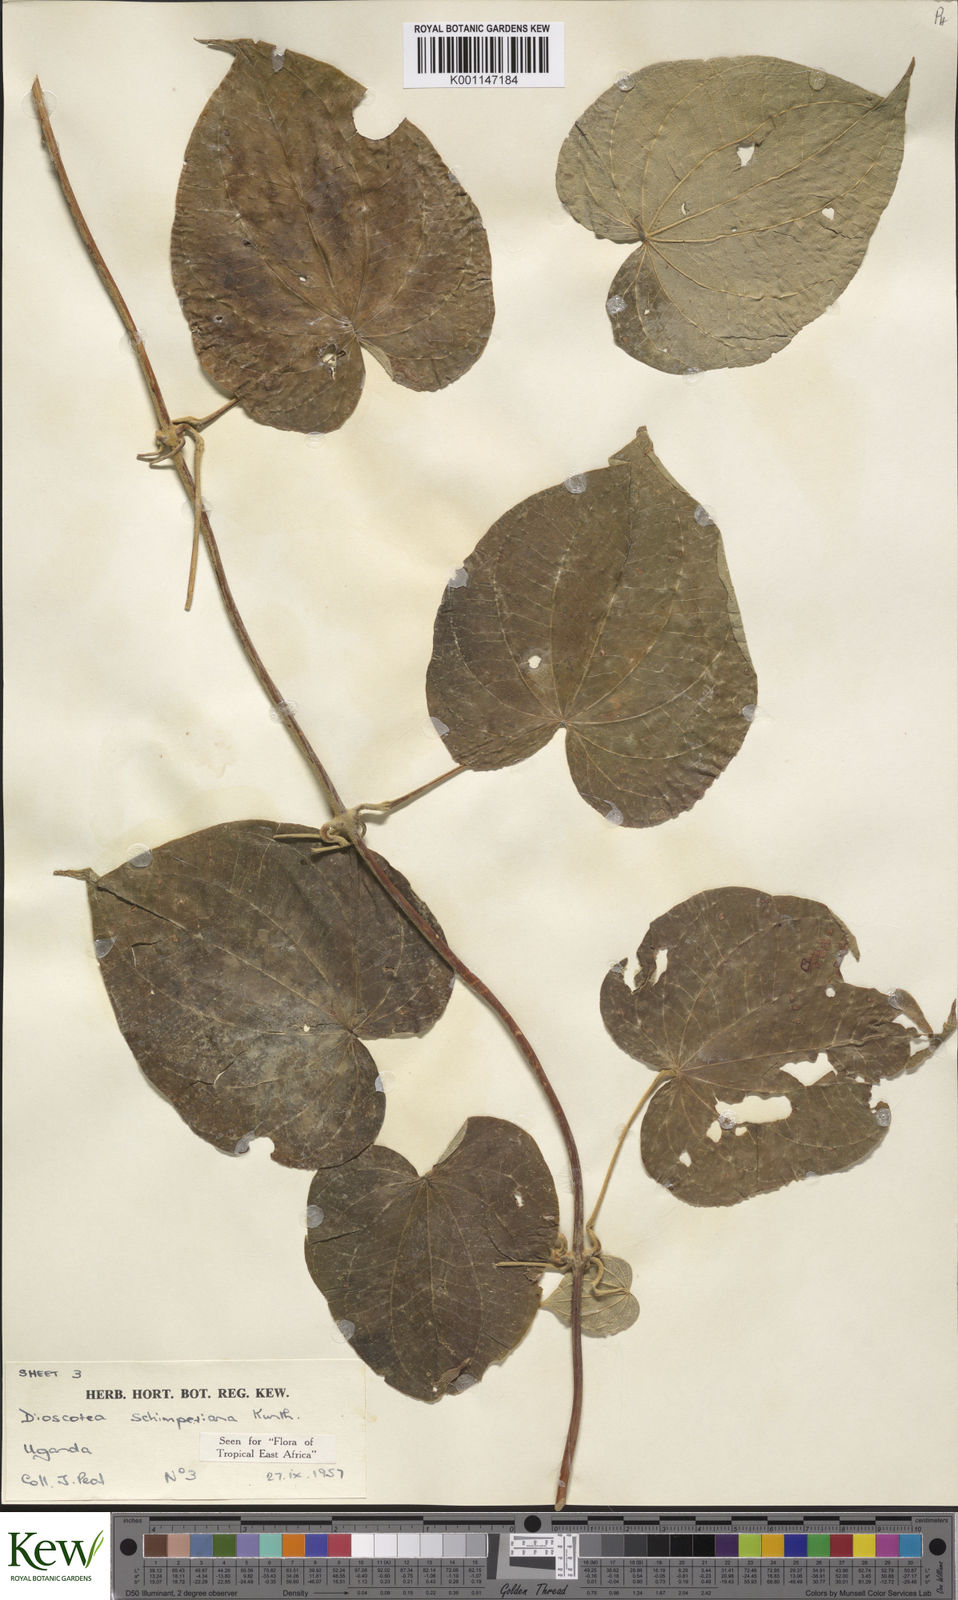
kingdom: Plantae
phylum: Tracheophyta
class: Liliopsida
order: Dioscoreales
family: Dioscoreaceae
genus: Dioscorea
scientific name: Dioscorea schimperiana
